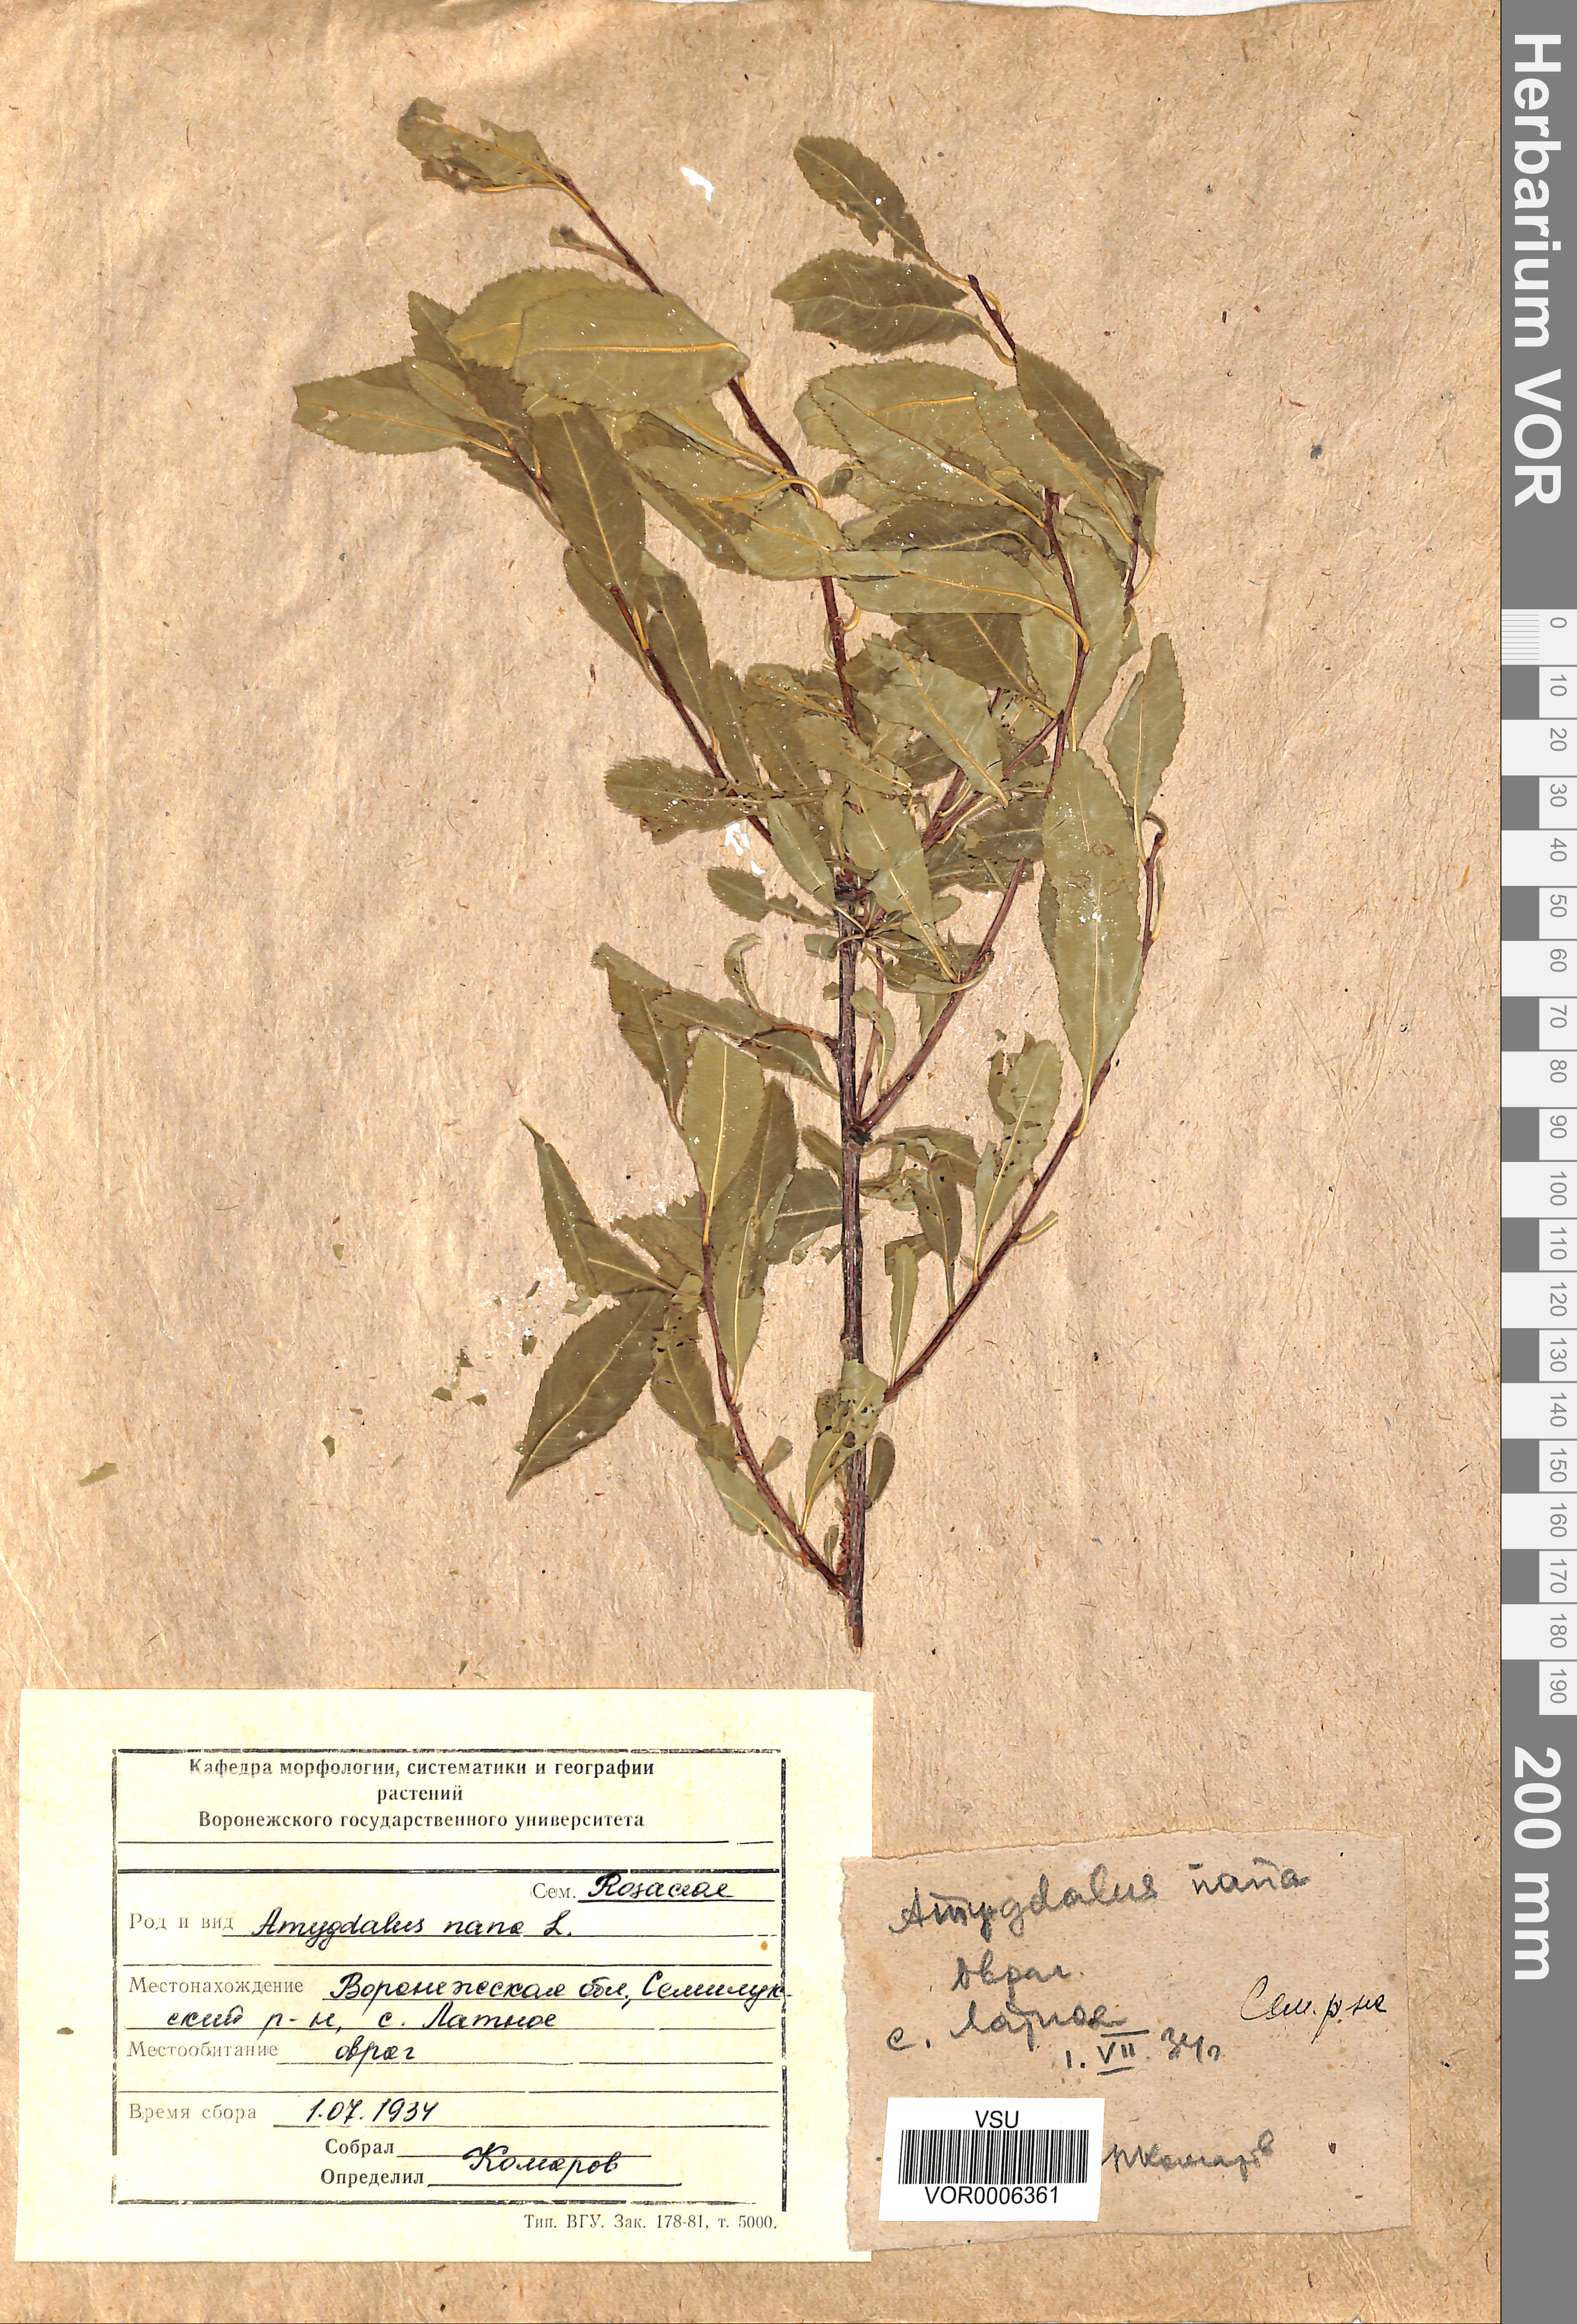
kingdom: Plantae
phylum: Tracheophyta
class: Magnoliopsida
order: Rosales
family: Rosaceae
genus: Prunus
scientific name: Prunus tenella
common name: Dwarf russian almond
